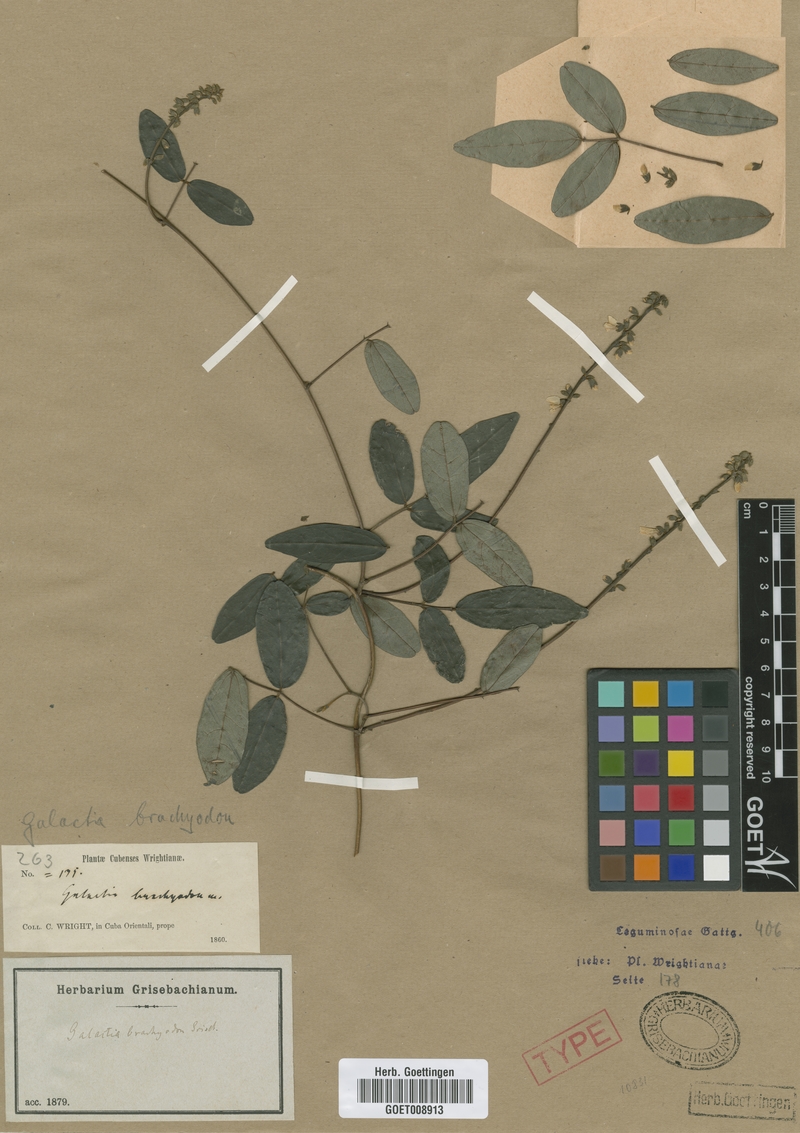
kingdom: Plantae
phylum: Tracheophyta
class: Magnoliopsida
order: Fabales
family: Fabaceae
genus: Galactia
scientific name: Galactia brachyodon
